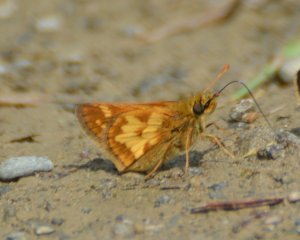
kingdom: Animalia
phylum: Arthropoda
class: Insecta
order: Lepidoptera
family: Hesperiidae
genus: Polites
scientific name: Polites coras
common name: Peck's Skipper
